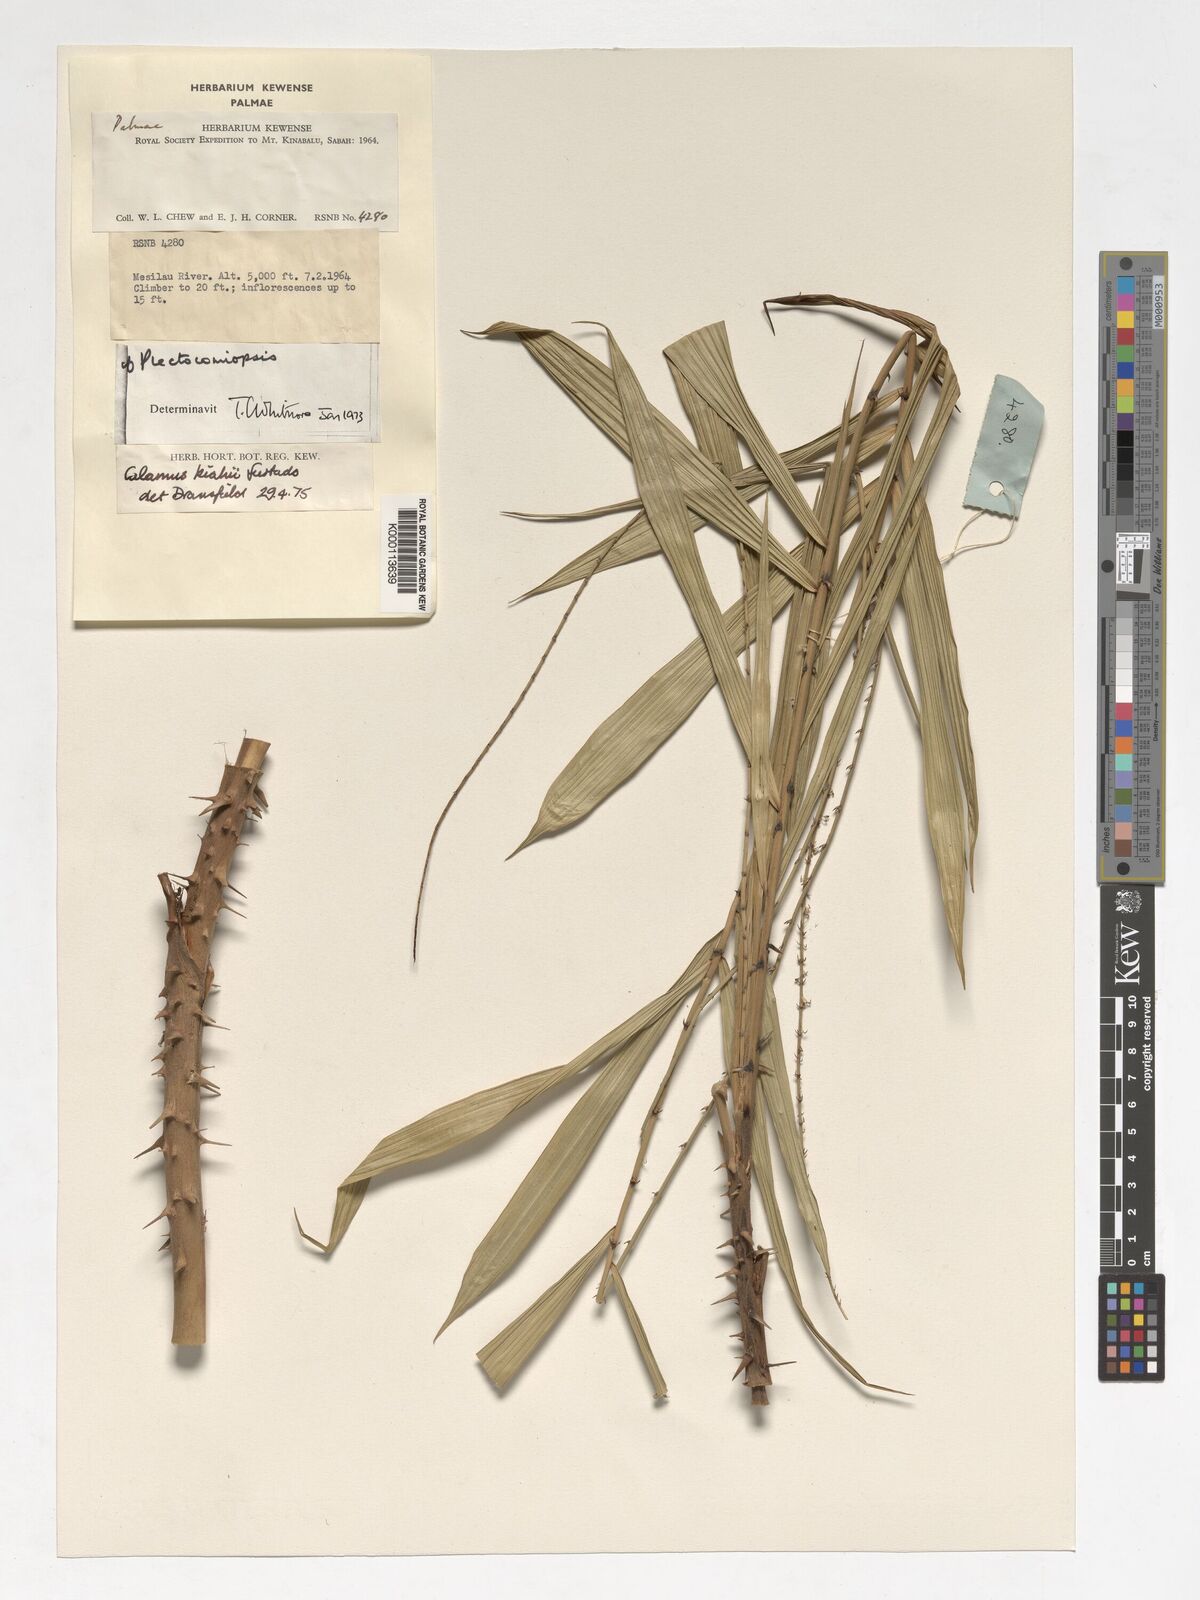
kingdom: Plantae
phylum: Tracheophyta
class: Liliopsida
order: Arecales
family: Arecaceae
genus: Calamus
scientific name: Calamus plicatus
